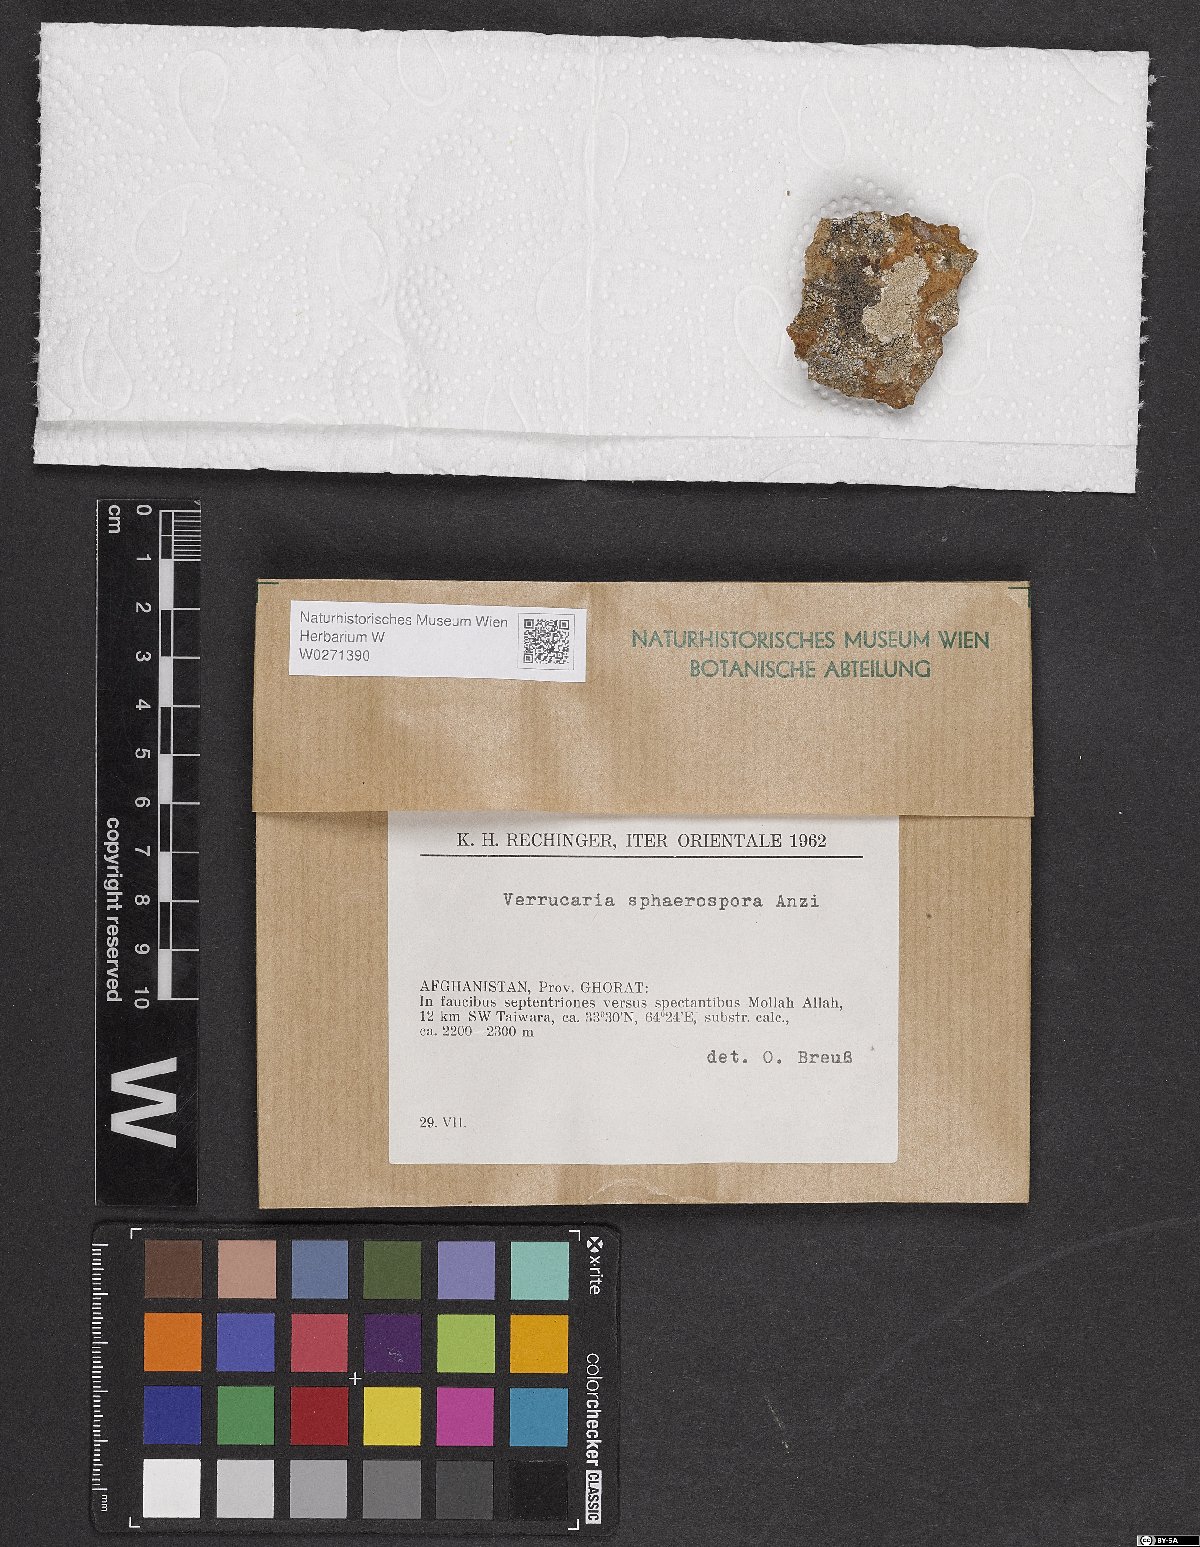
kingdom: Fungi
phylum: Ascomycota
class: Eurotiomycetes
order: Verrucariales
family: Verrucariaceae
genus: Verrucaria
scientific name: Verrucaria sphaerospora
